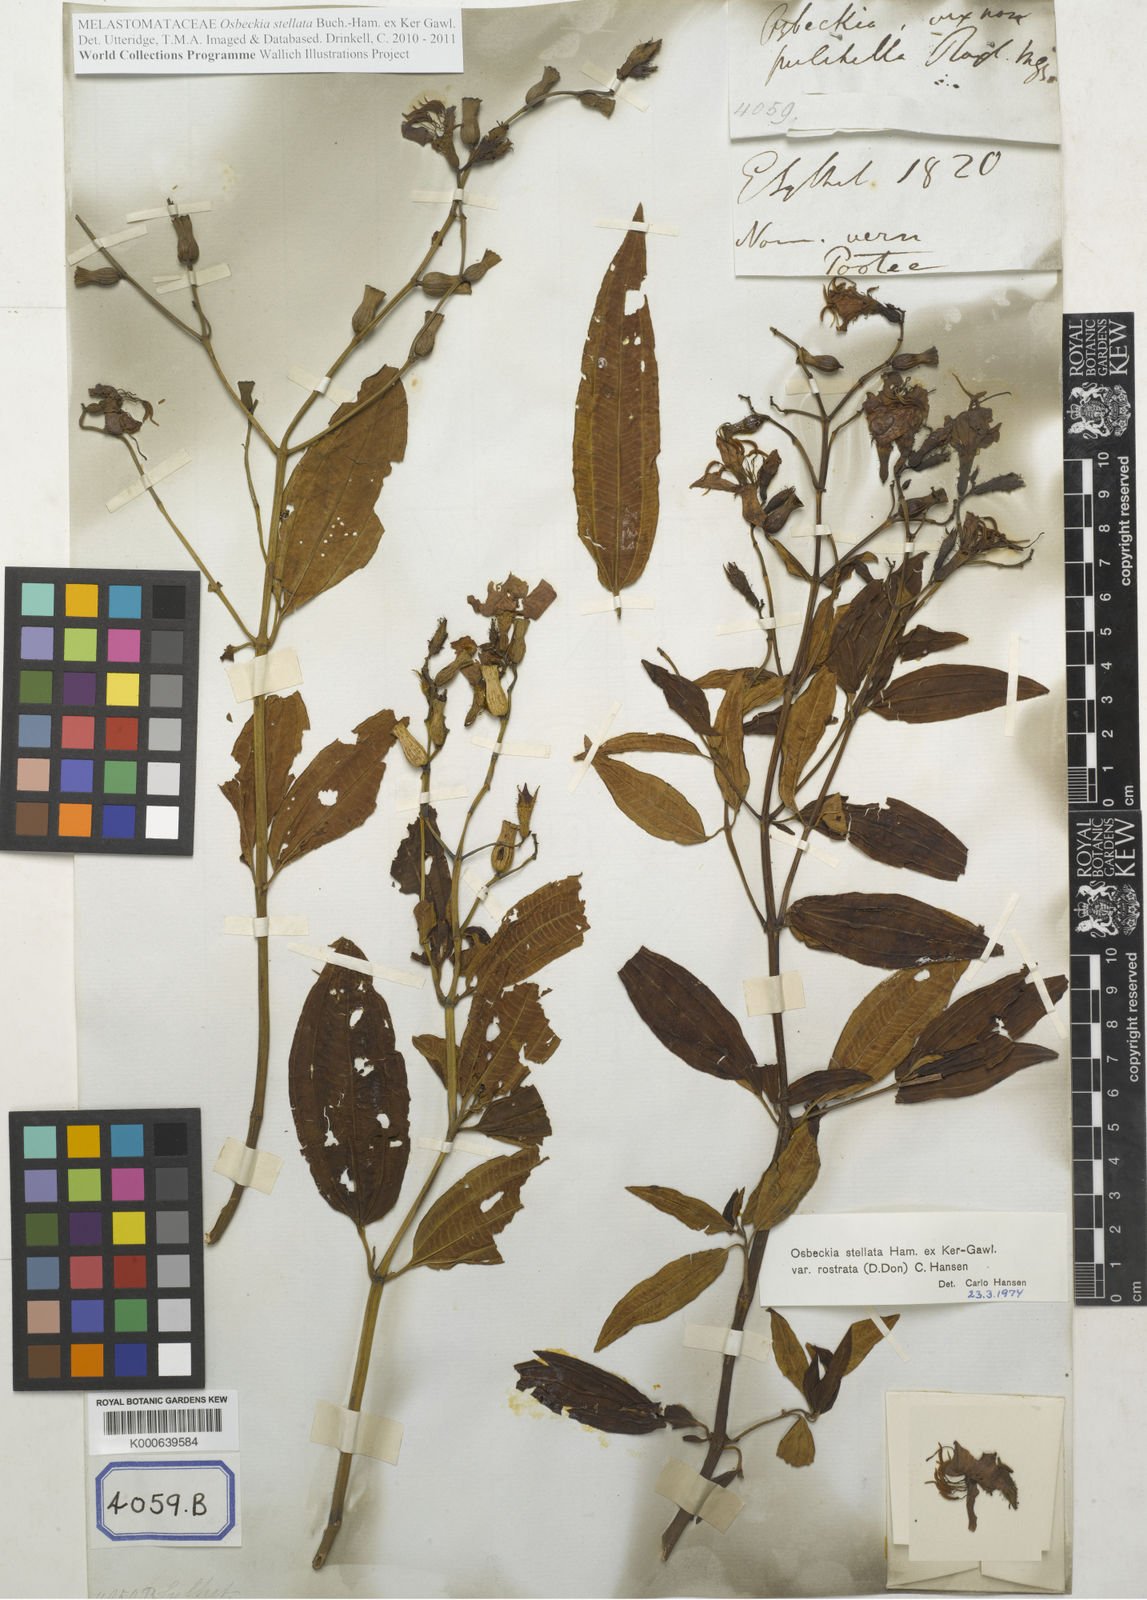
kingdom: Plantae
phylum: Tracheophyta
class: Magnoliopsida
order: Myrtales
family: Melastomataceae
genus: Osbeckia
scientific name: Osbeckia rostrata
